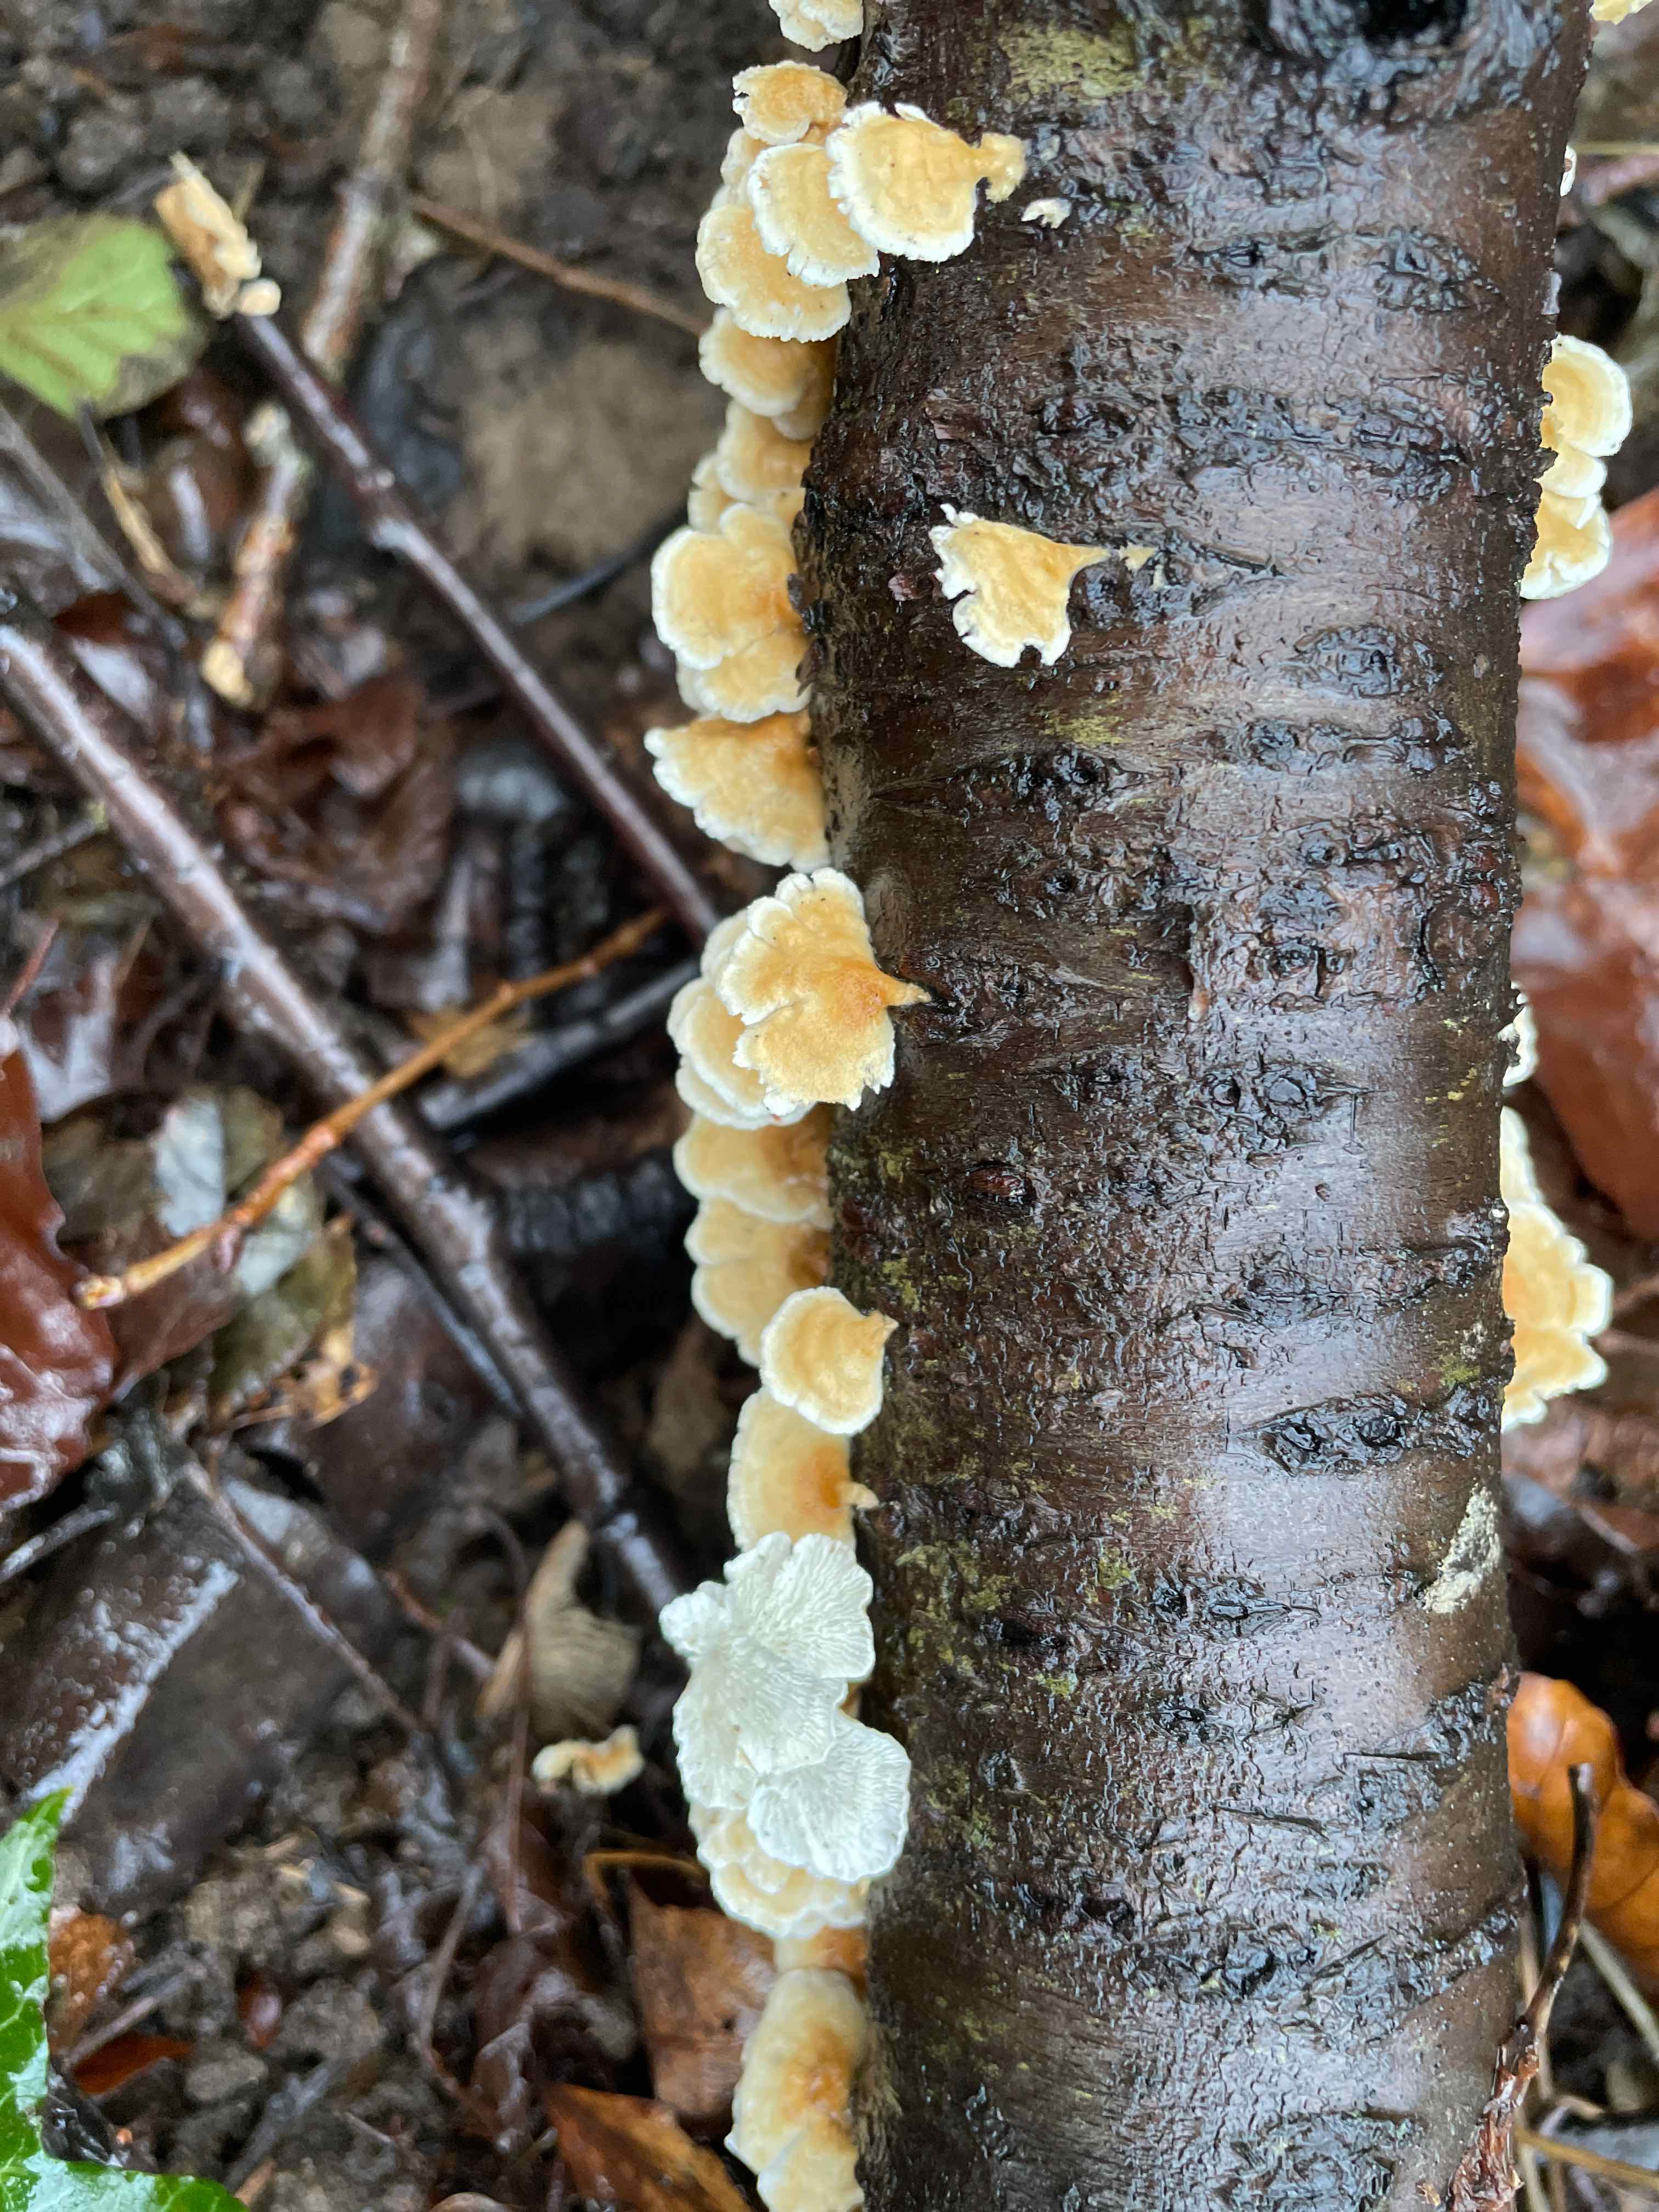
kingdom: Fungi
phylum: Basidiomycota
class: Agaricomycetes
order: Amylocorticiales
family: Amylocorticiaceae
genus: Plicaturopsis
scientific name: Plicaturopsis crispa
